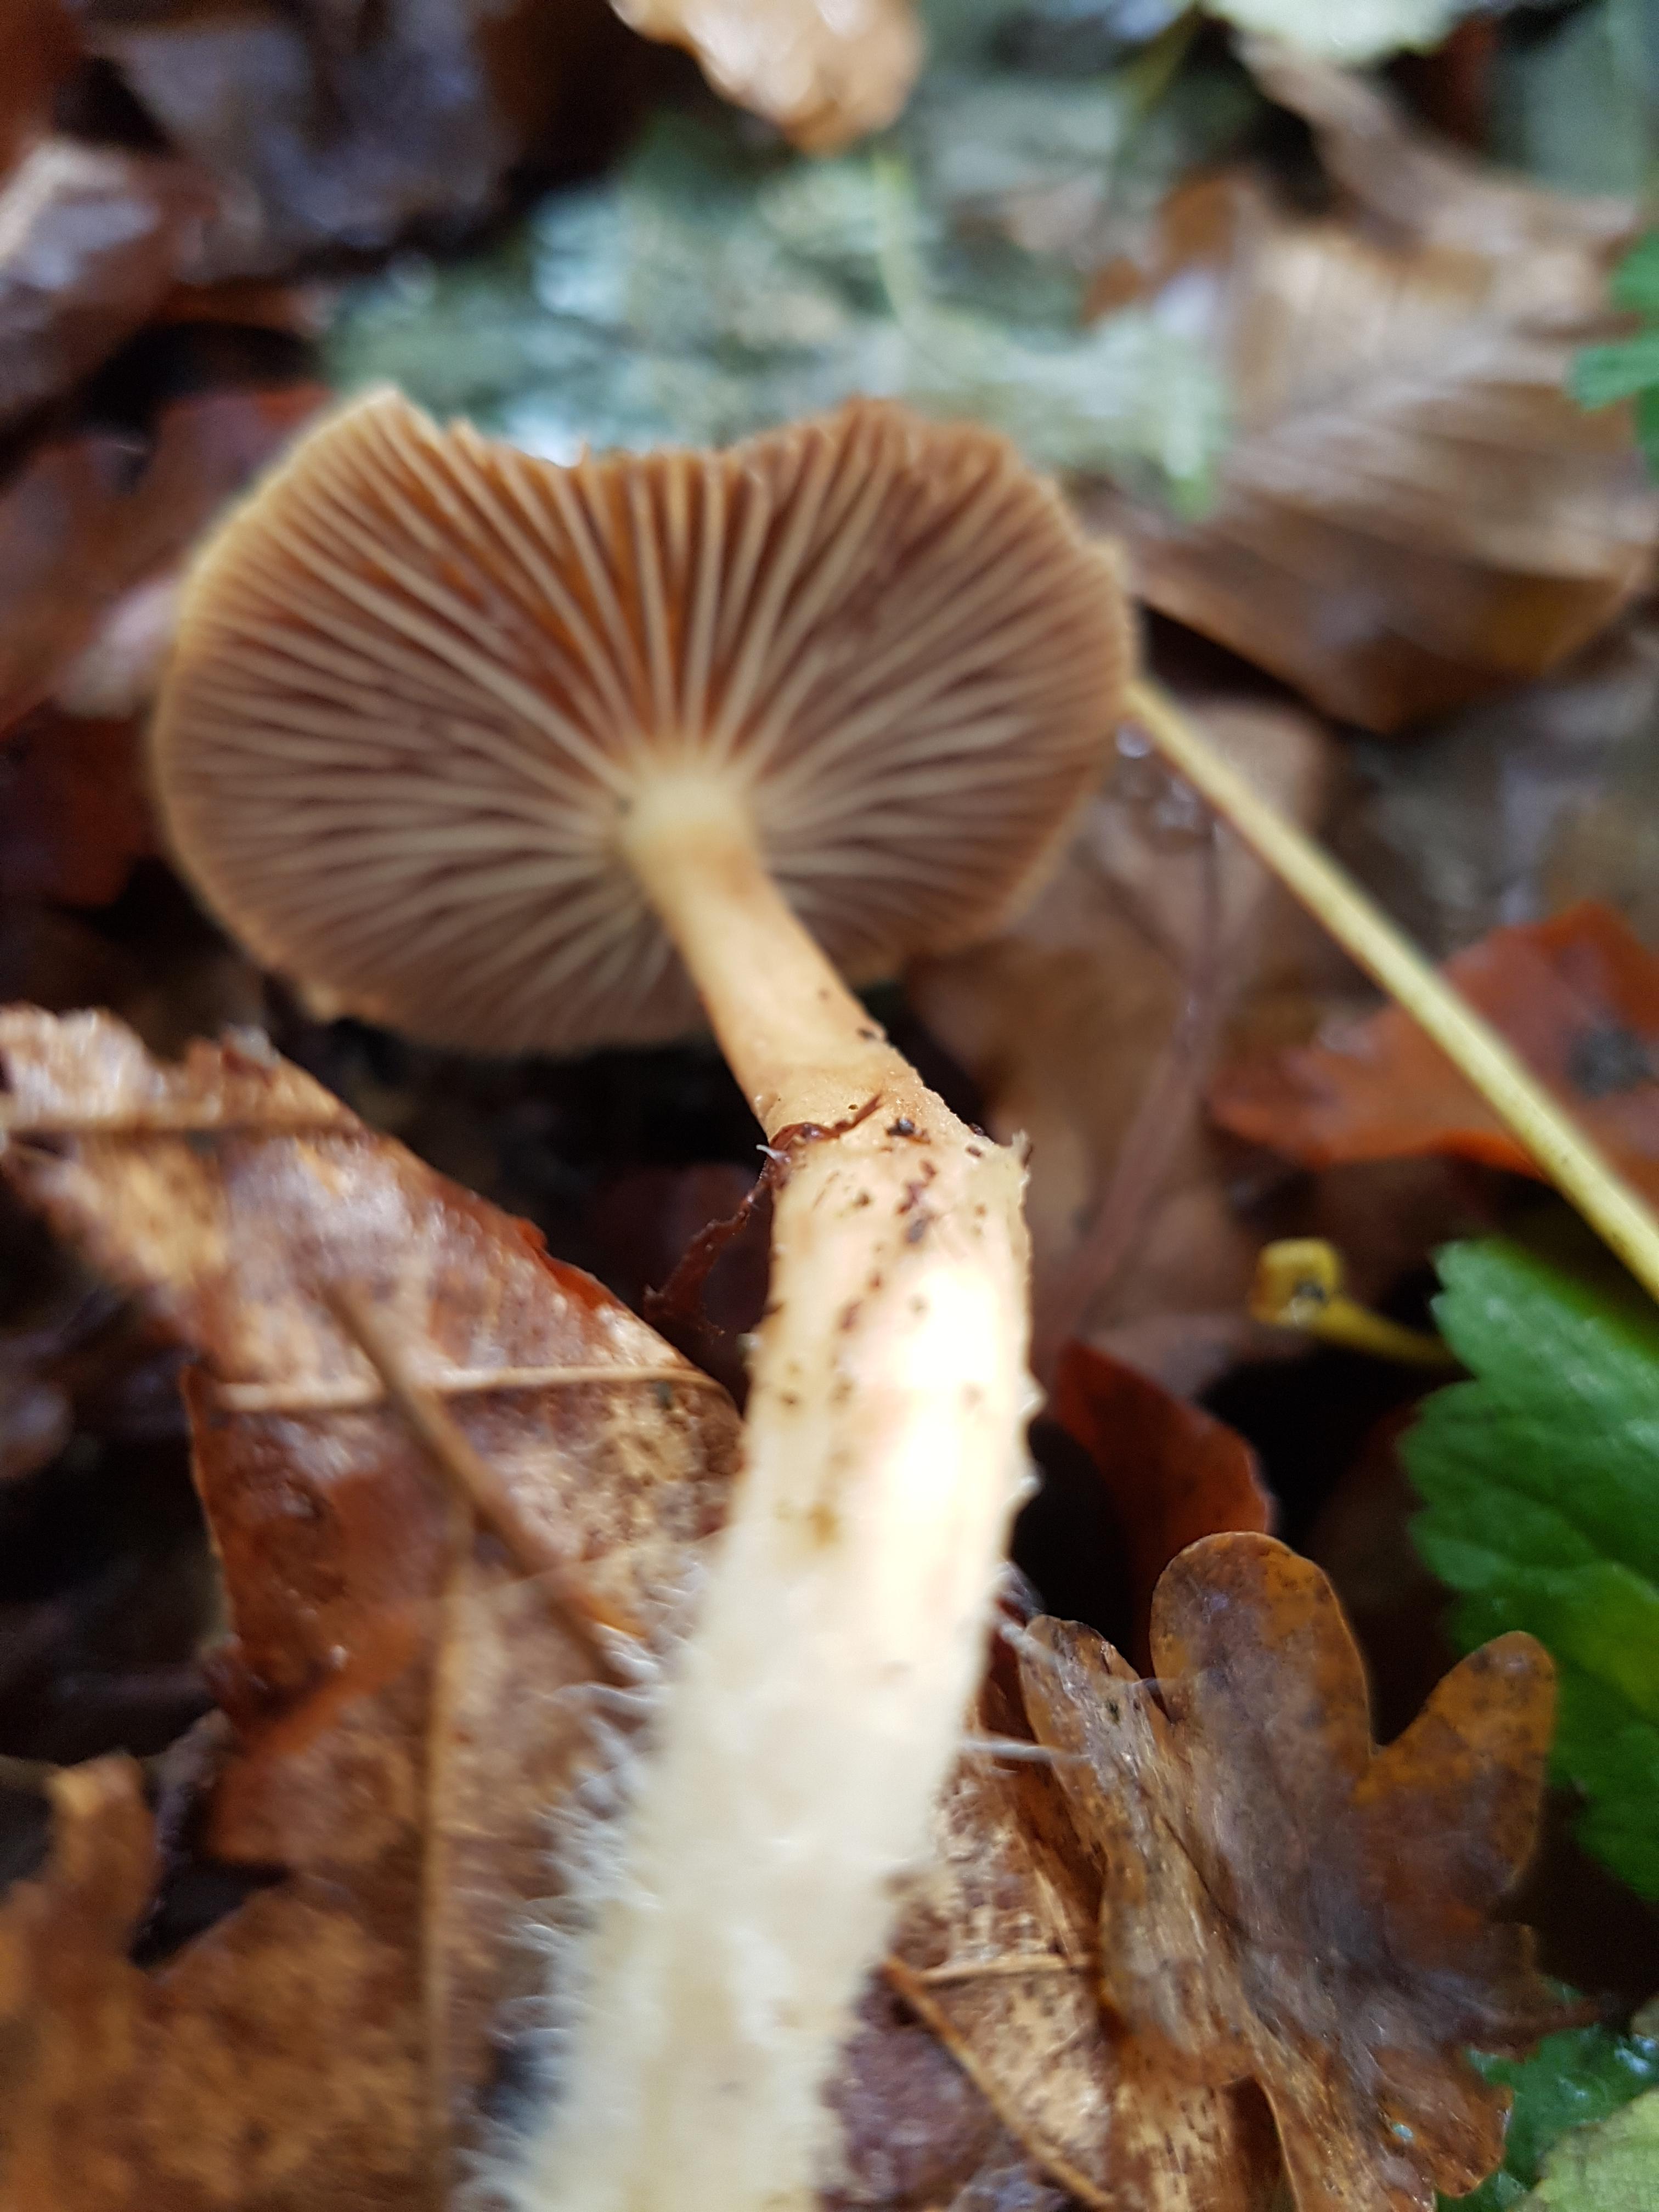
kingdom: Fungi
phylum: Basidiomycota
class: Agaricomycetes
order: Agaricales
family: Omphalotaceae
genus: Collybiopsis
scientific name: Collybiopsis peronata
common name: bestøvlet fladhat
